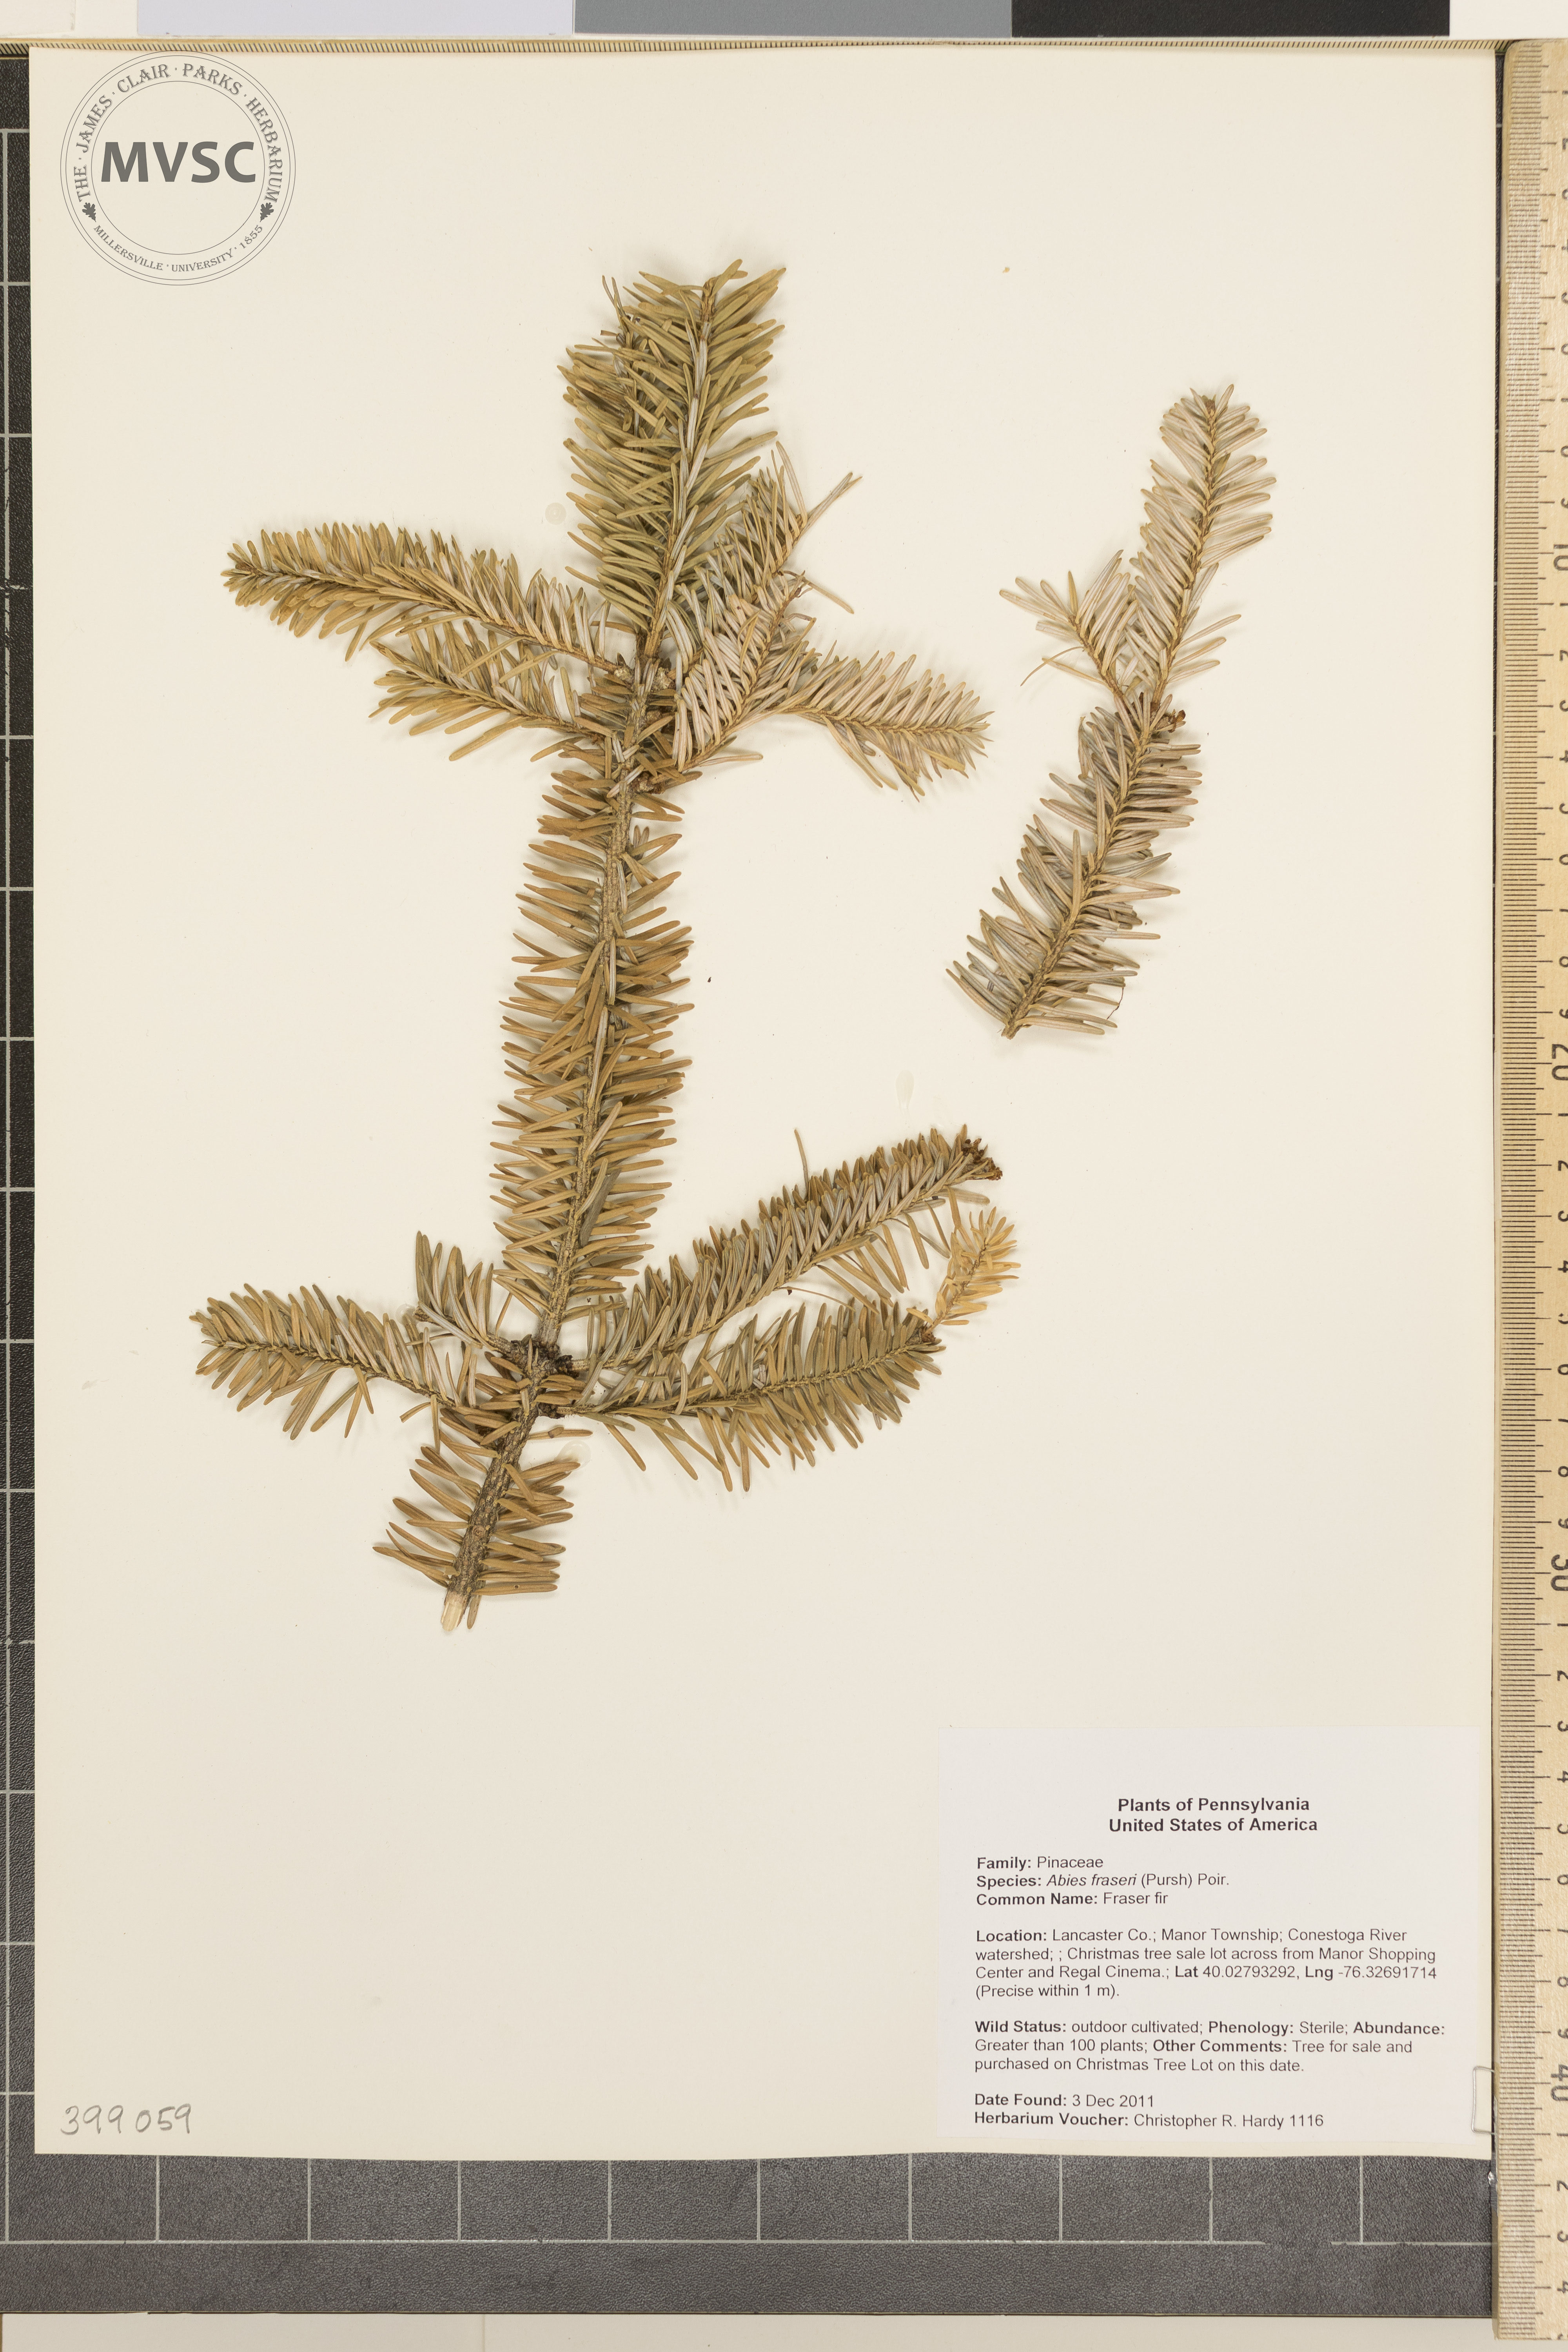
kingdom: Plantae
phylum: Tracheophyta
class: Pinopsida
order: Pinales
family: Pinaceae
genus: Abies
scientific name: Abies fraseri
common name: Fraser fir
